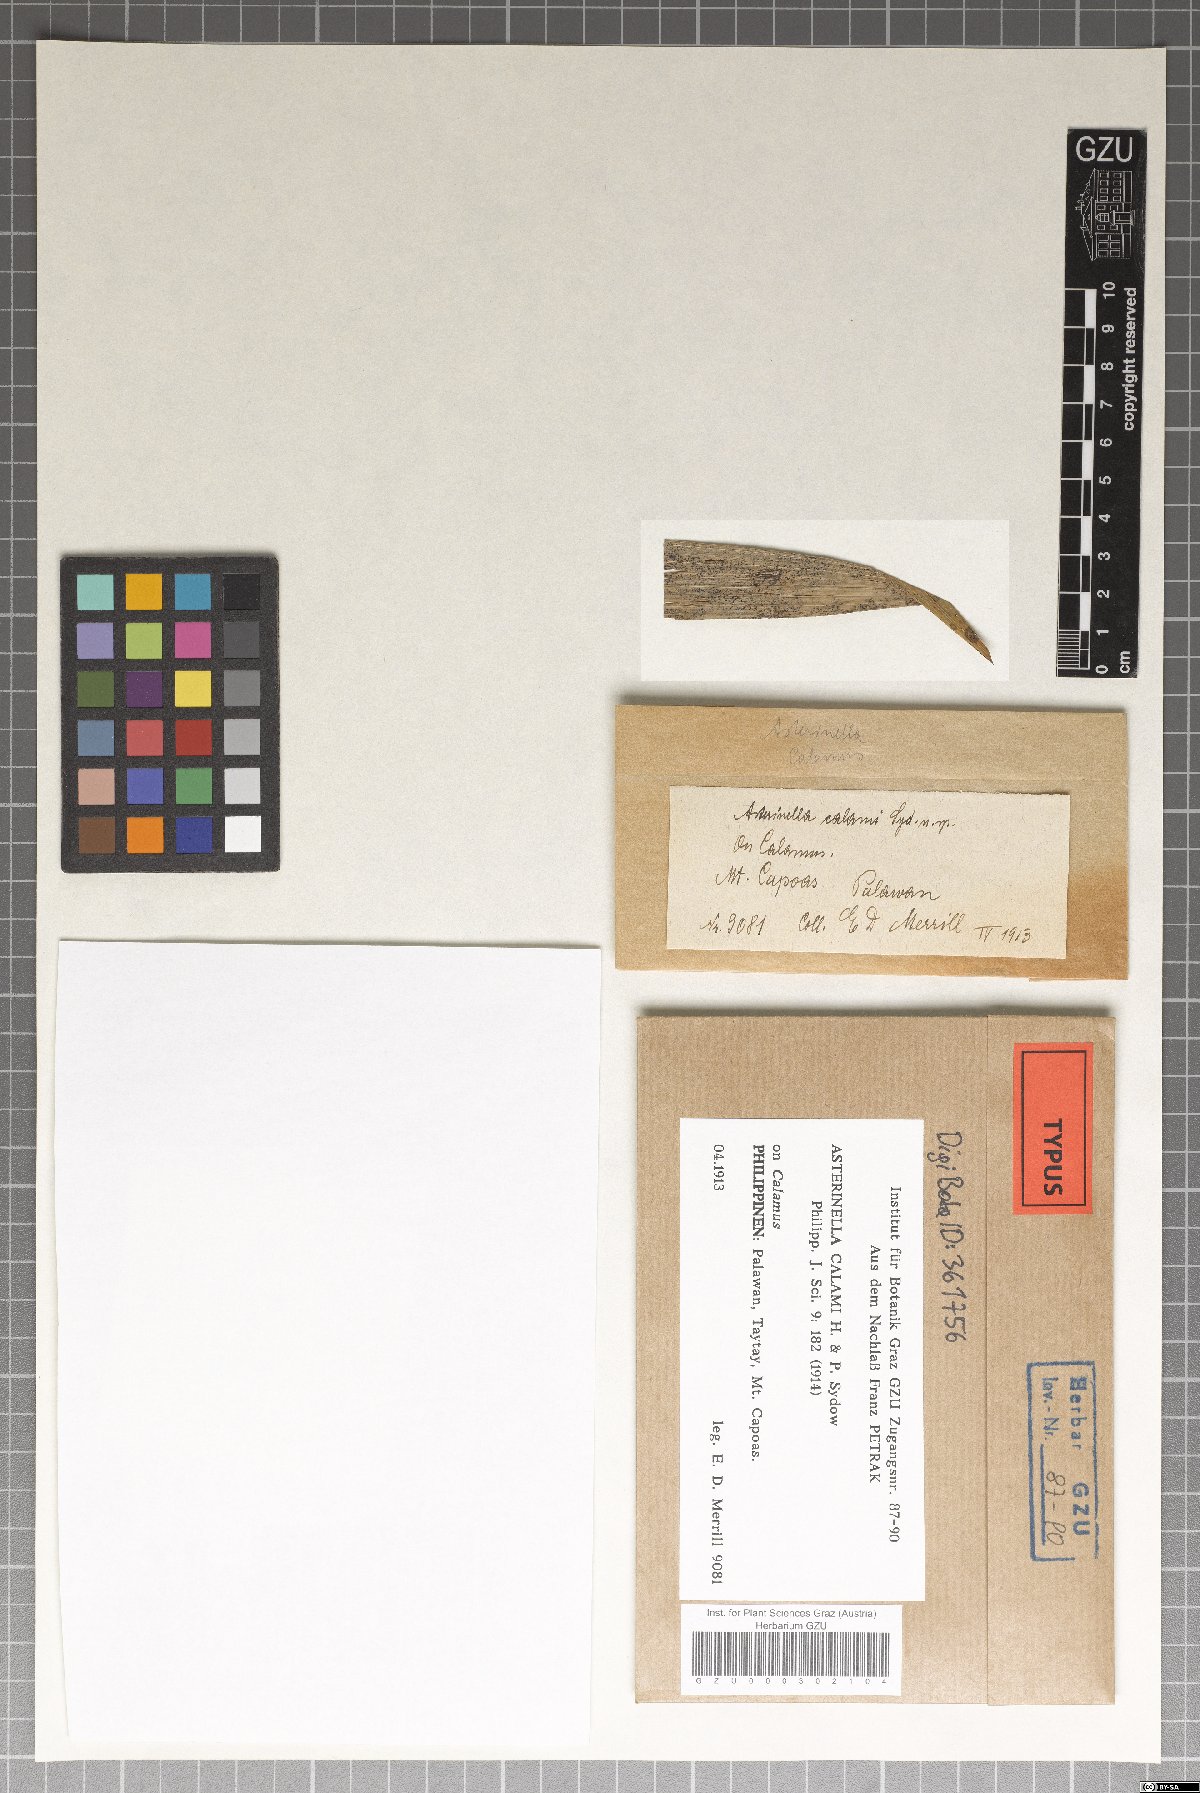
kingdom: Fungi
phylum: Ascomycota
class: Dothideomycetes
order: Asterinales
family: Asterinaceae
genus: Prillieuxina
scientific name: Prillieuxina calami
